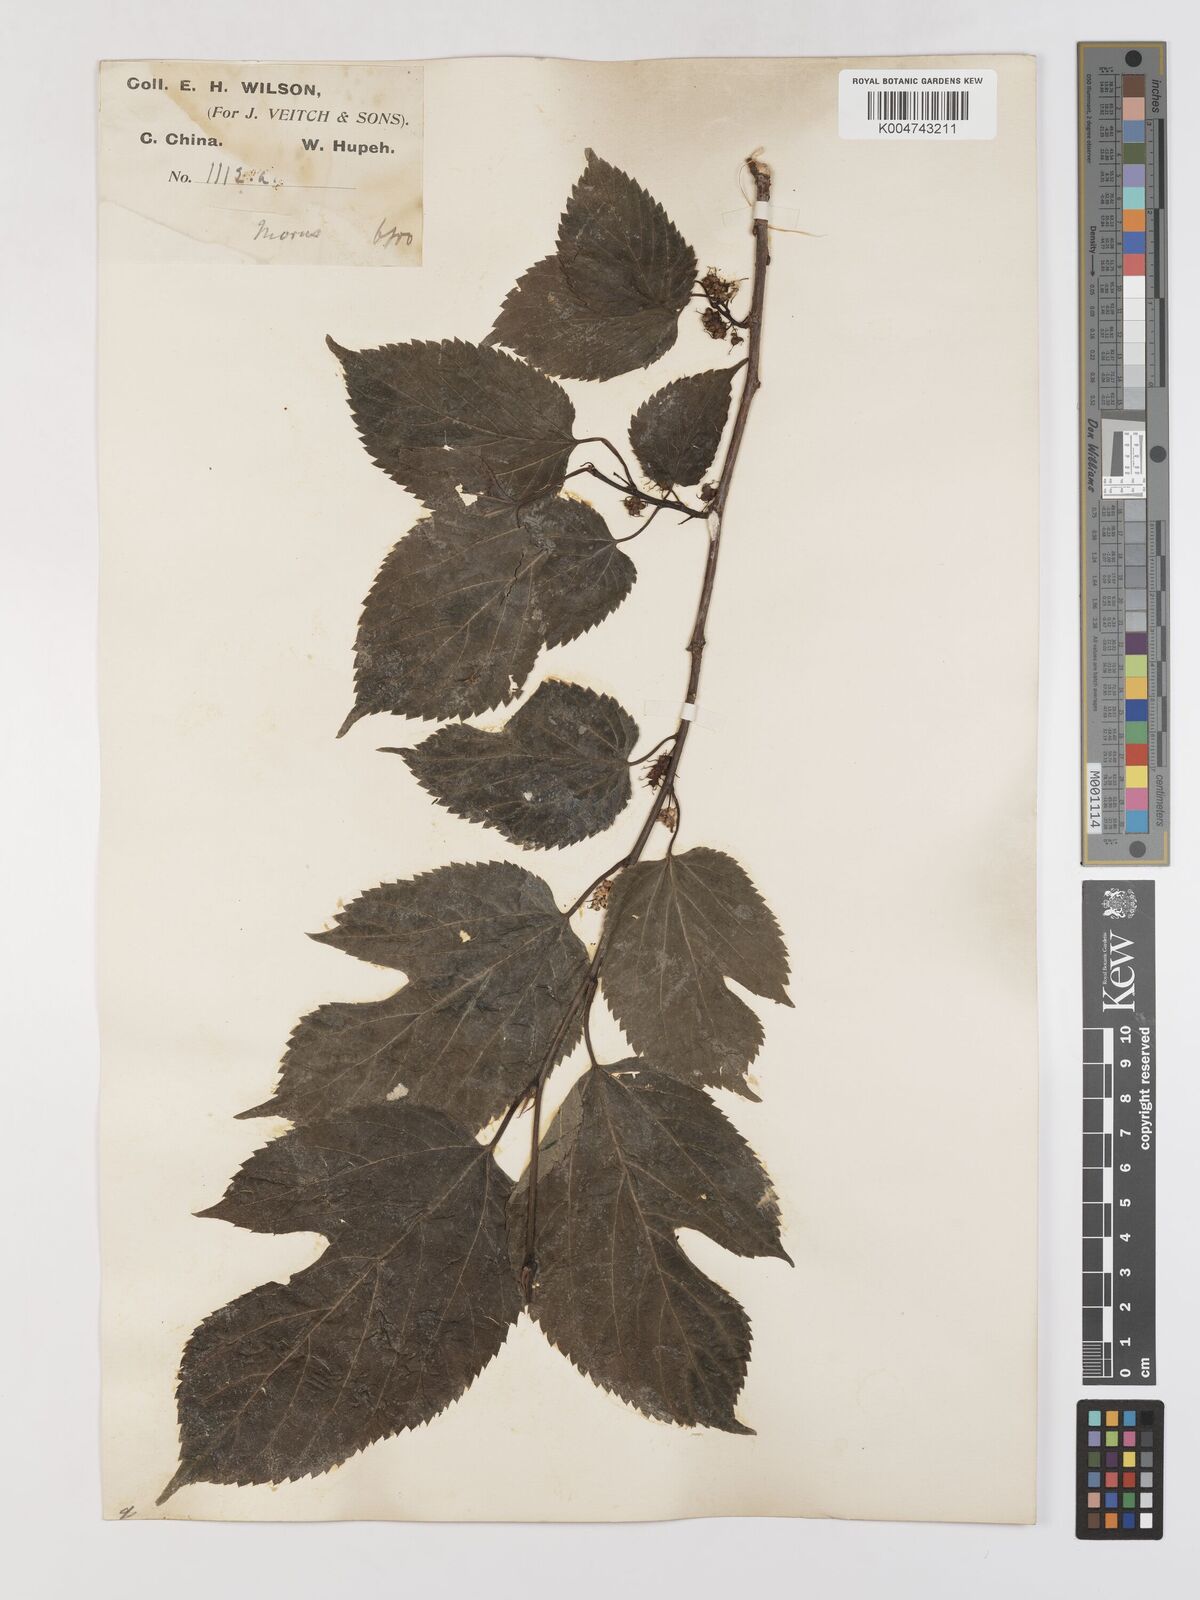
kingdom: Plantae
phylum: Tracheophyta
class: Magnoliopsida
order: Rosales
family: Moraceae
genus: Morus
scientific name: Morus indica
